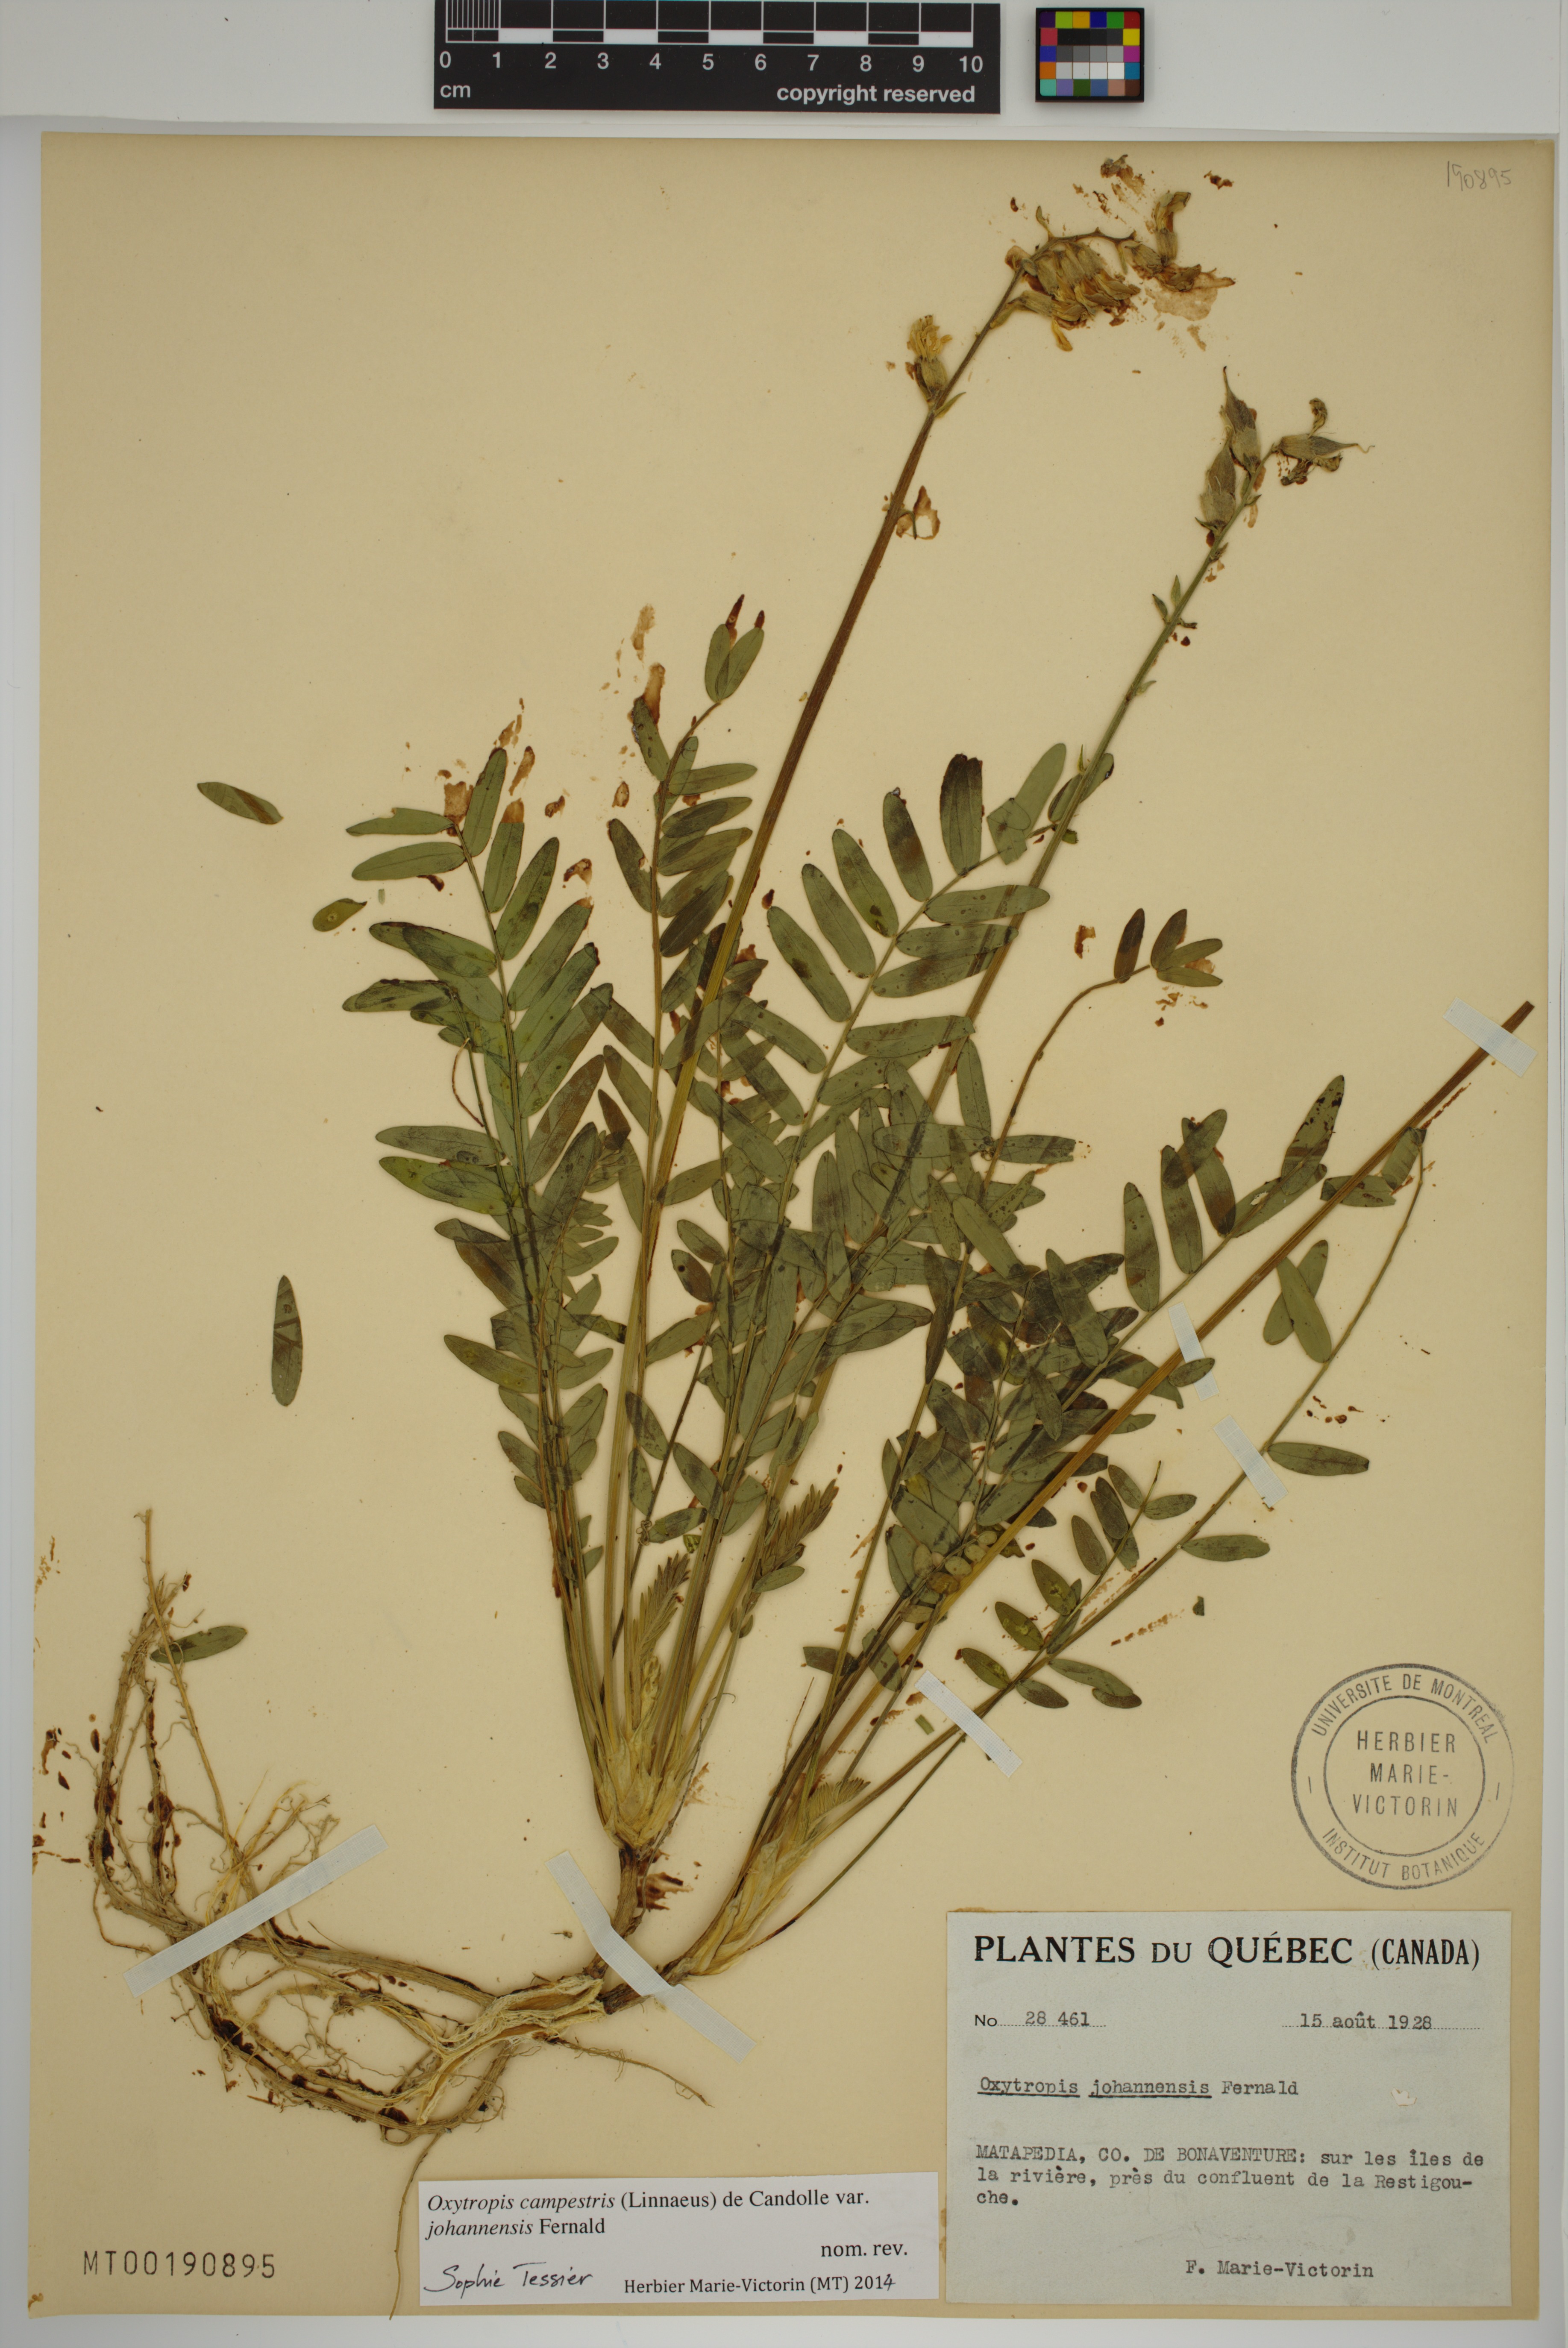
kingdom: Plantae
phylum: Tracheophyta
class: Magnoliopsida
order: Fabales
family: Fabaceae
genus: Oxytropis
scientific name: Oxytropis campestris
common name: Field locoweed
